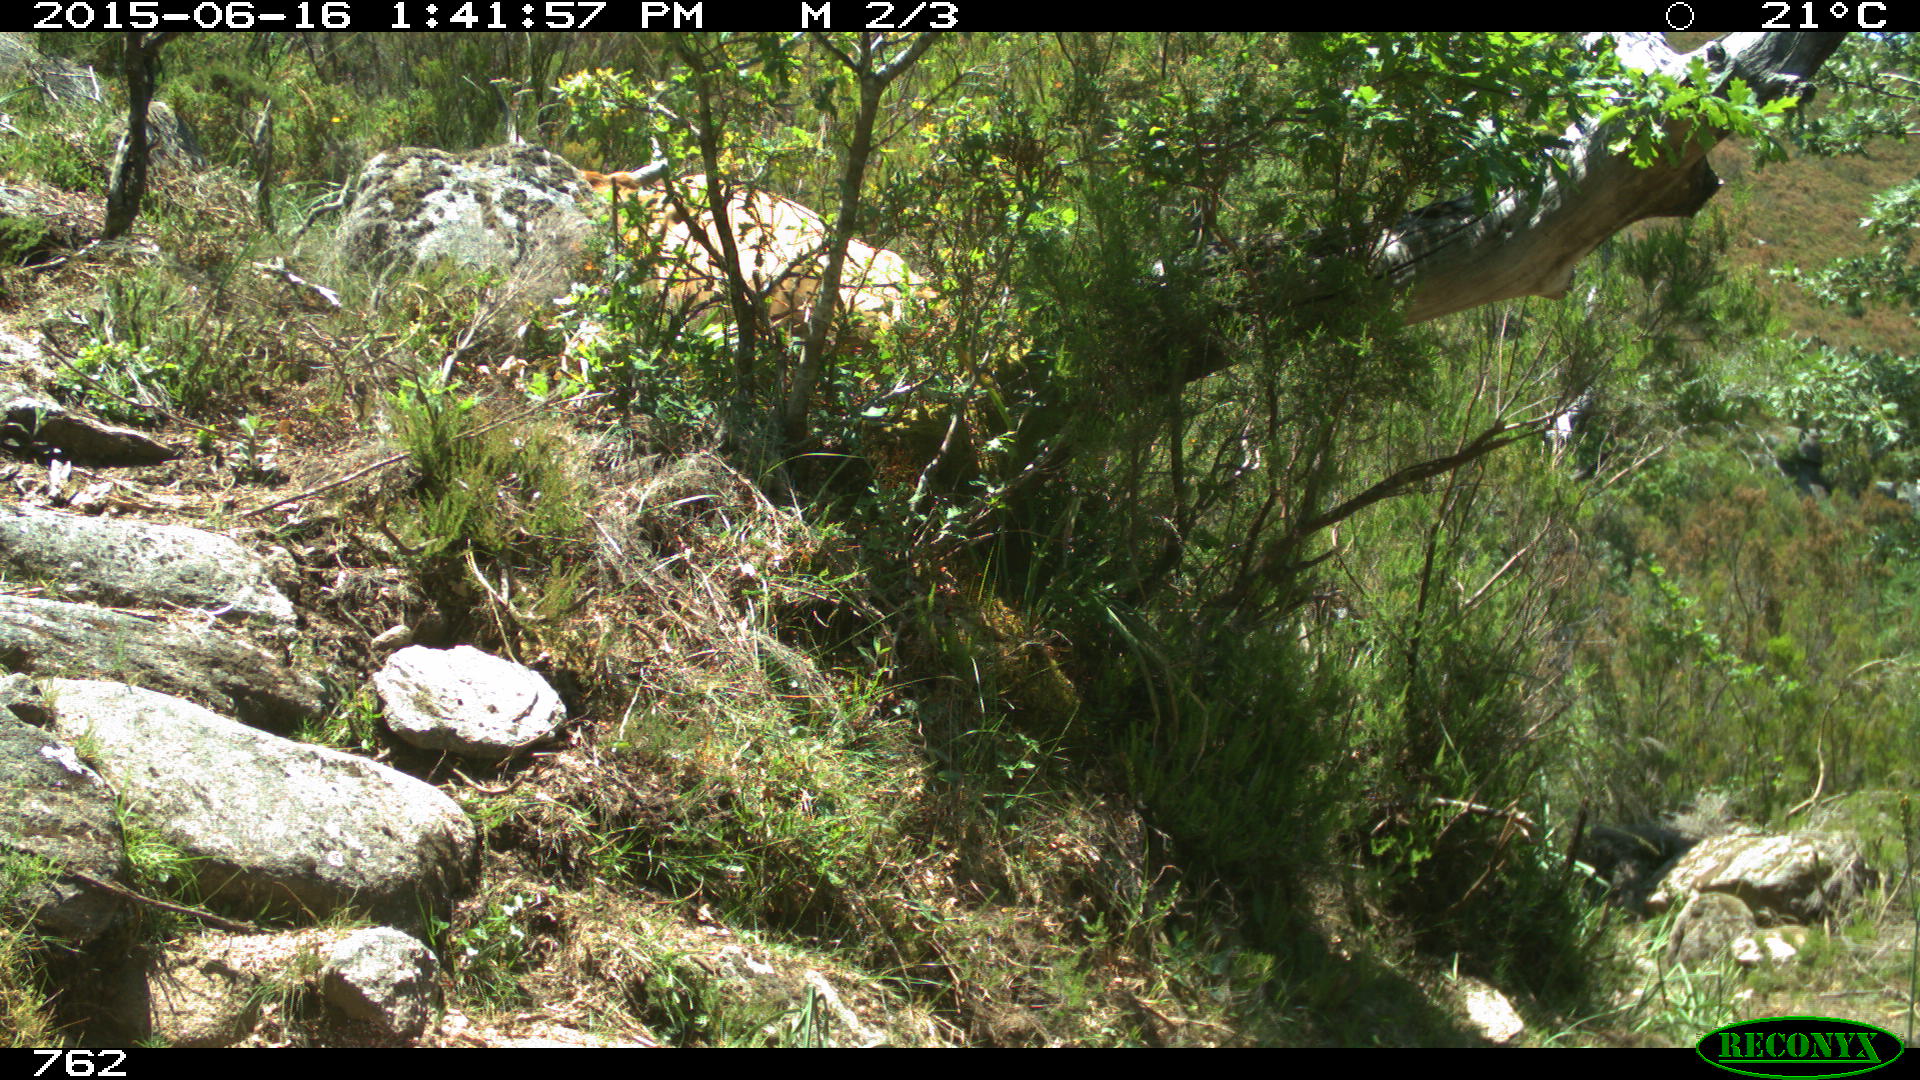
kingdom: Animalia
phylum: Chordata
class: Mammalia
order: Artiodactyla
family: Bovidae
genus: Bos
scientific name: Bos taurus
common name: Domesticated cattle
